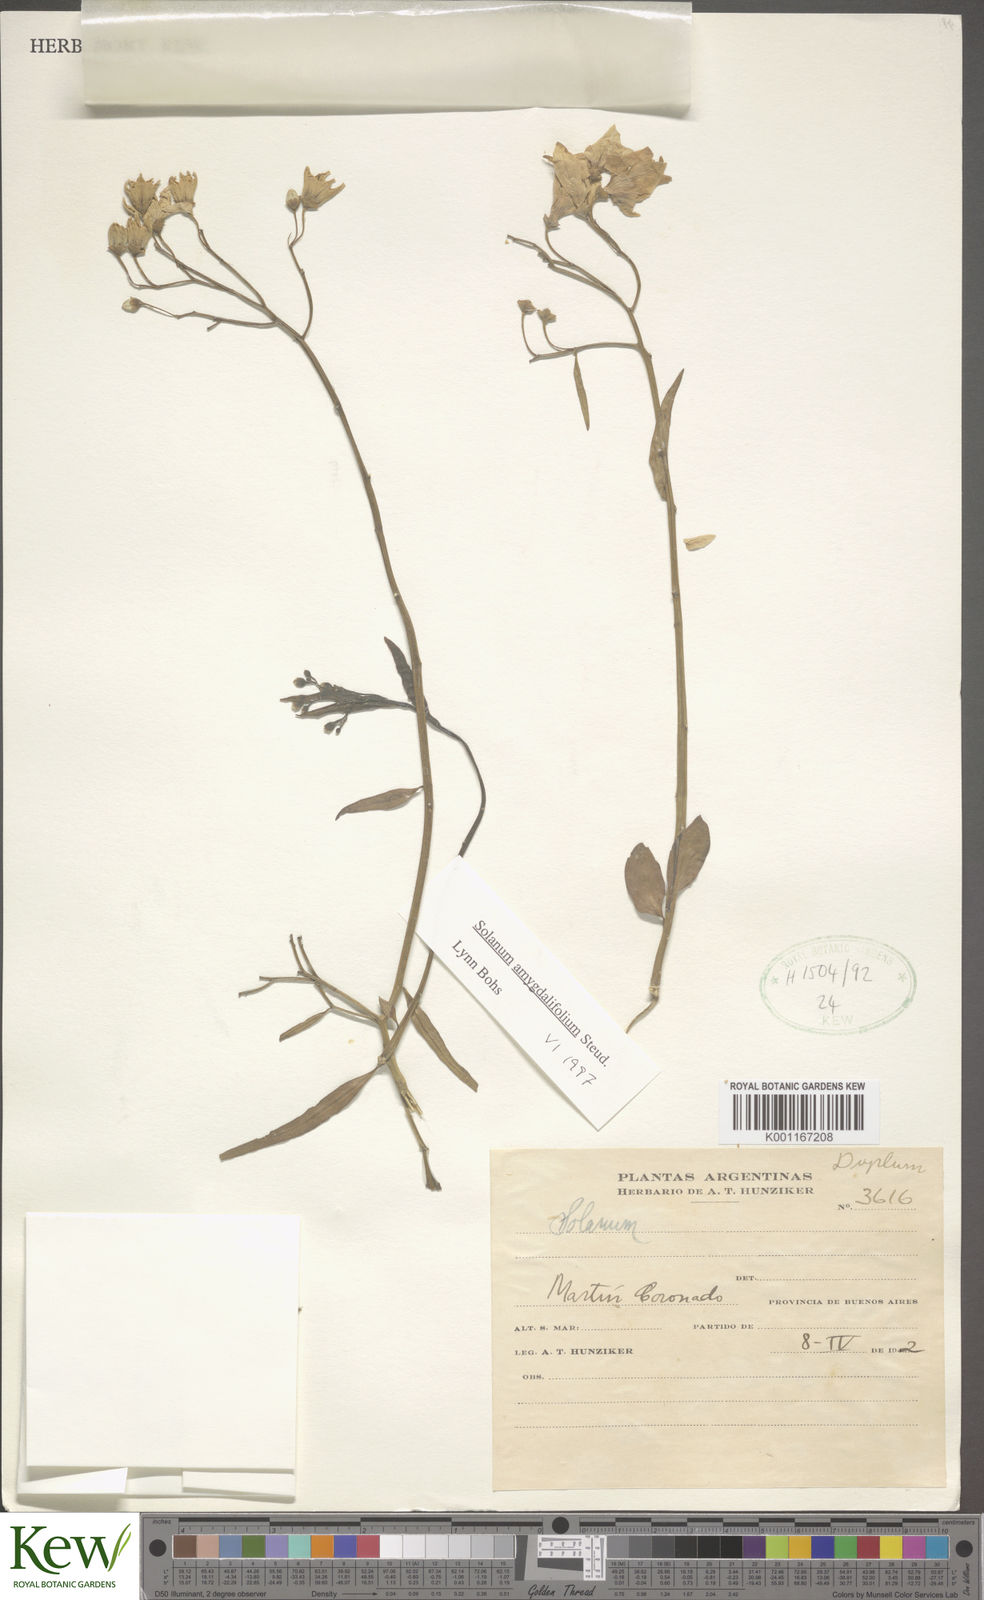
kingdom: Plantae
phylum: Tracheophyta
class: Magnoliopsida
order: Solanales
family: Solanaceae
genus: Solanum
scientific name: Solanum amygdalifolium
